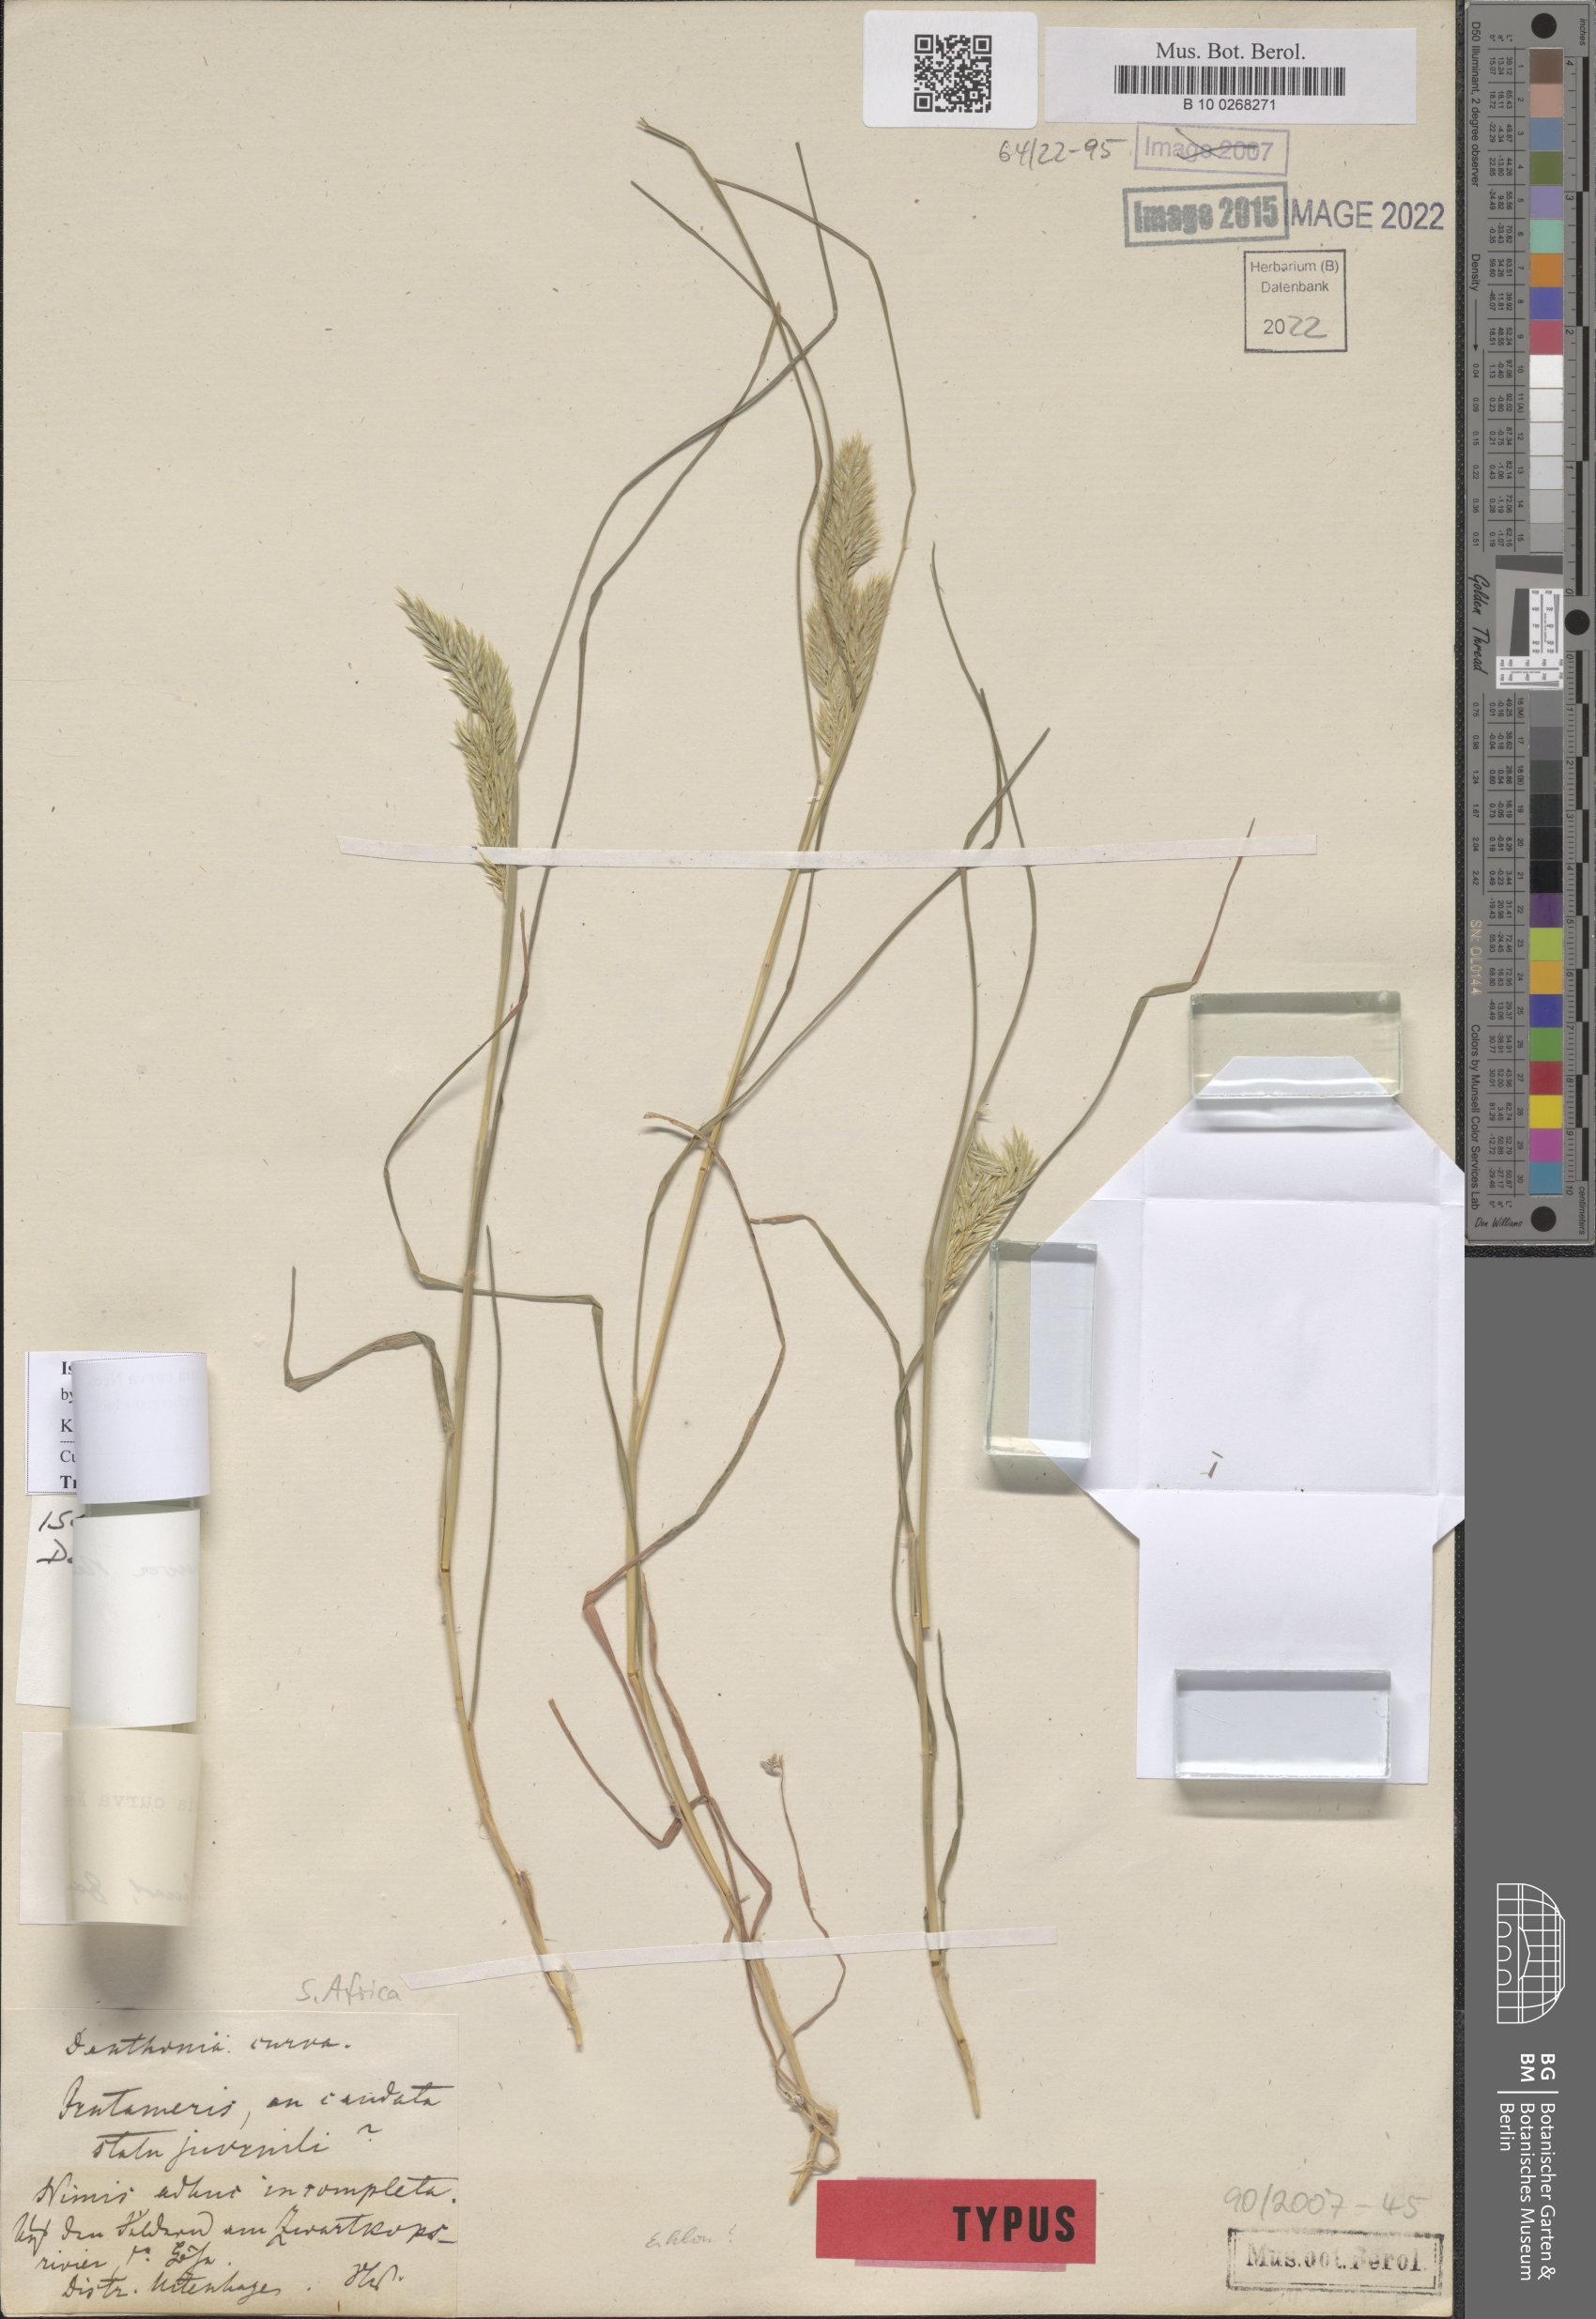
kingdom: Plantae
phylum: Tracheophyta
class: Liliopsida
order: Poales
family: Poaceae
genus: Tribolium
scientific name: Tribolium curvum
